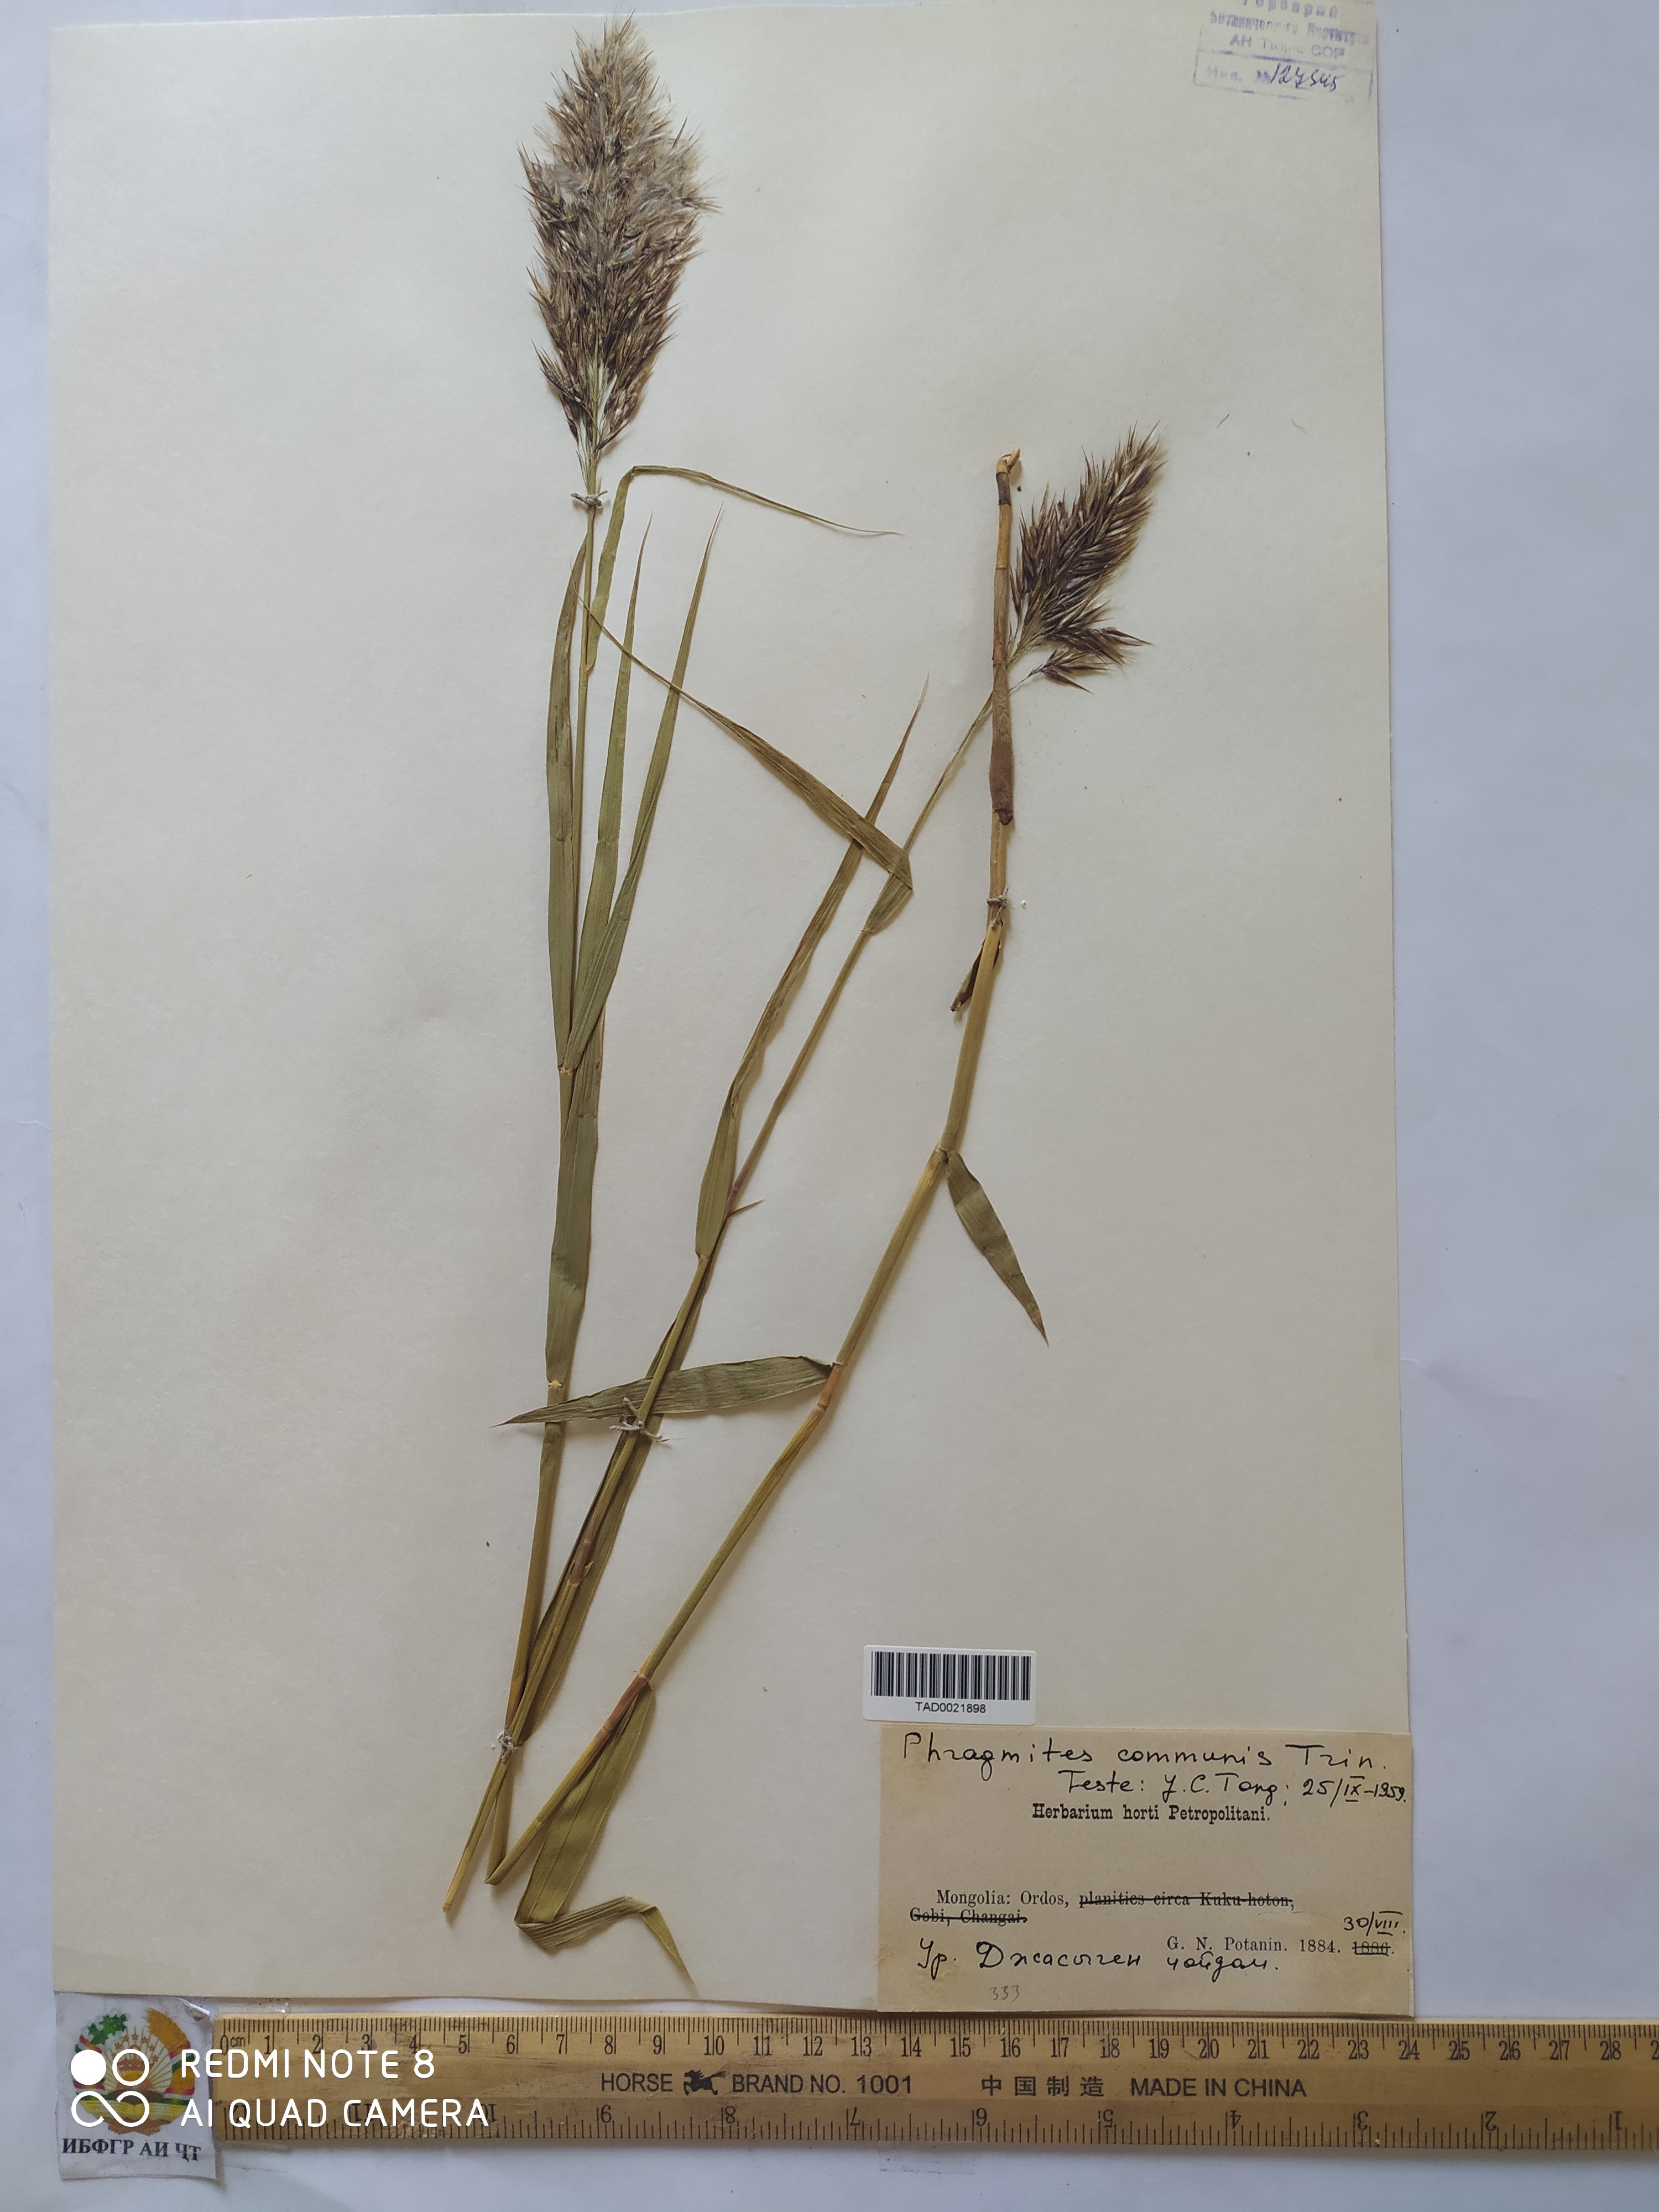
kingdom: Plantae
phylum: Tracheophyta
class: Liliopsida
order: Poales
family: Poaceae
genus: Phragmites
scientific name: Phragmites australis
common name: Common reed
